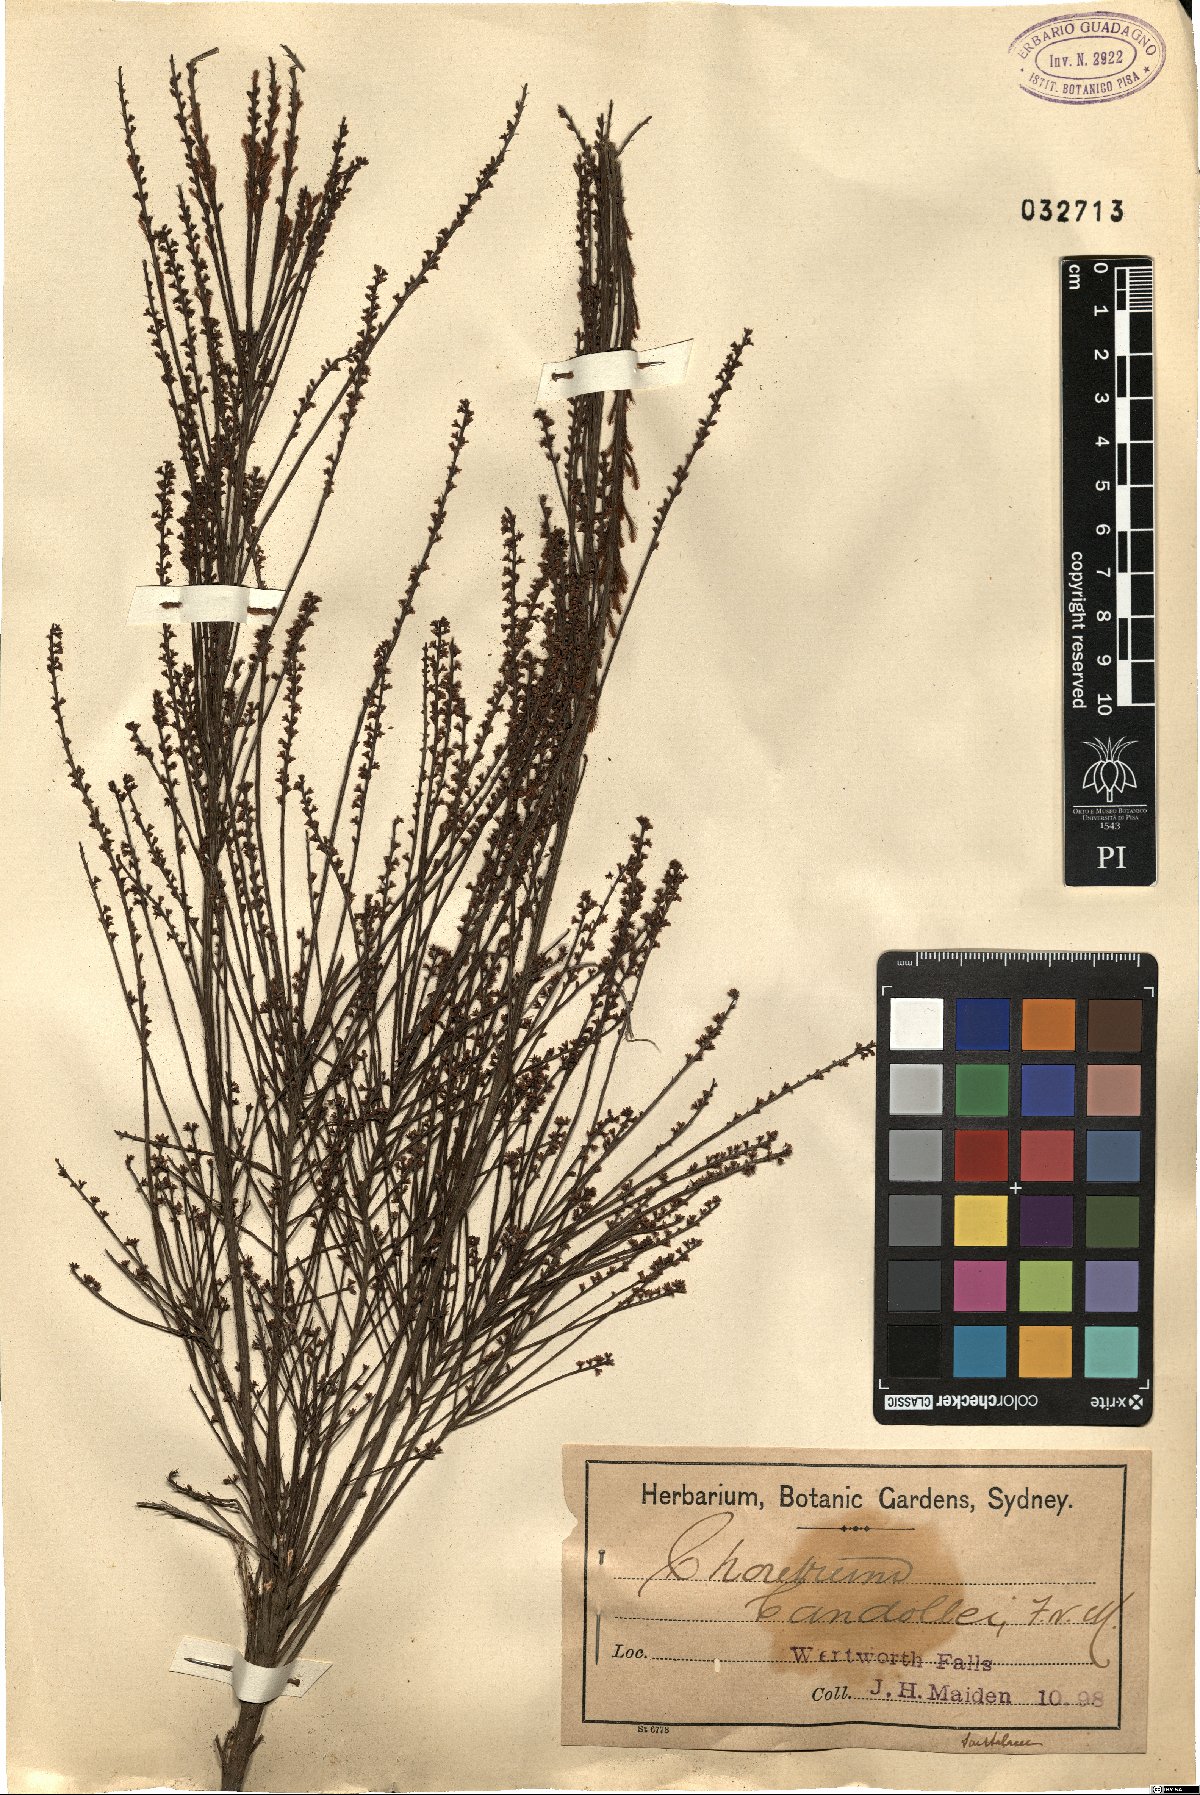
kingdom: Plantae
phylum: Tracheophyta
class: Magnoliopsida
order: Santalales
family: Amphorogynaceae
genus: Choretrum
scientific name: Choretrum candollei
